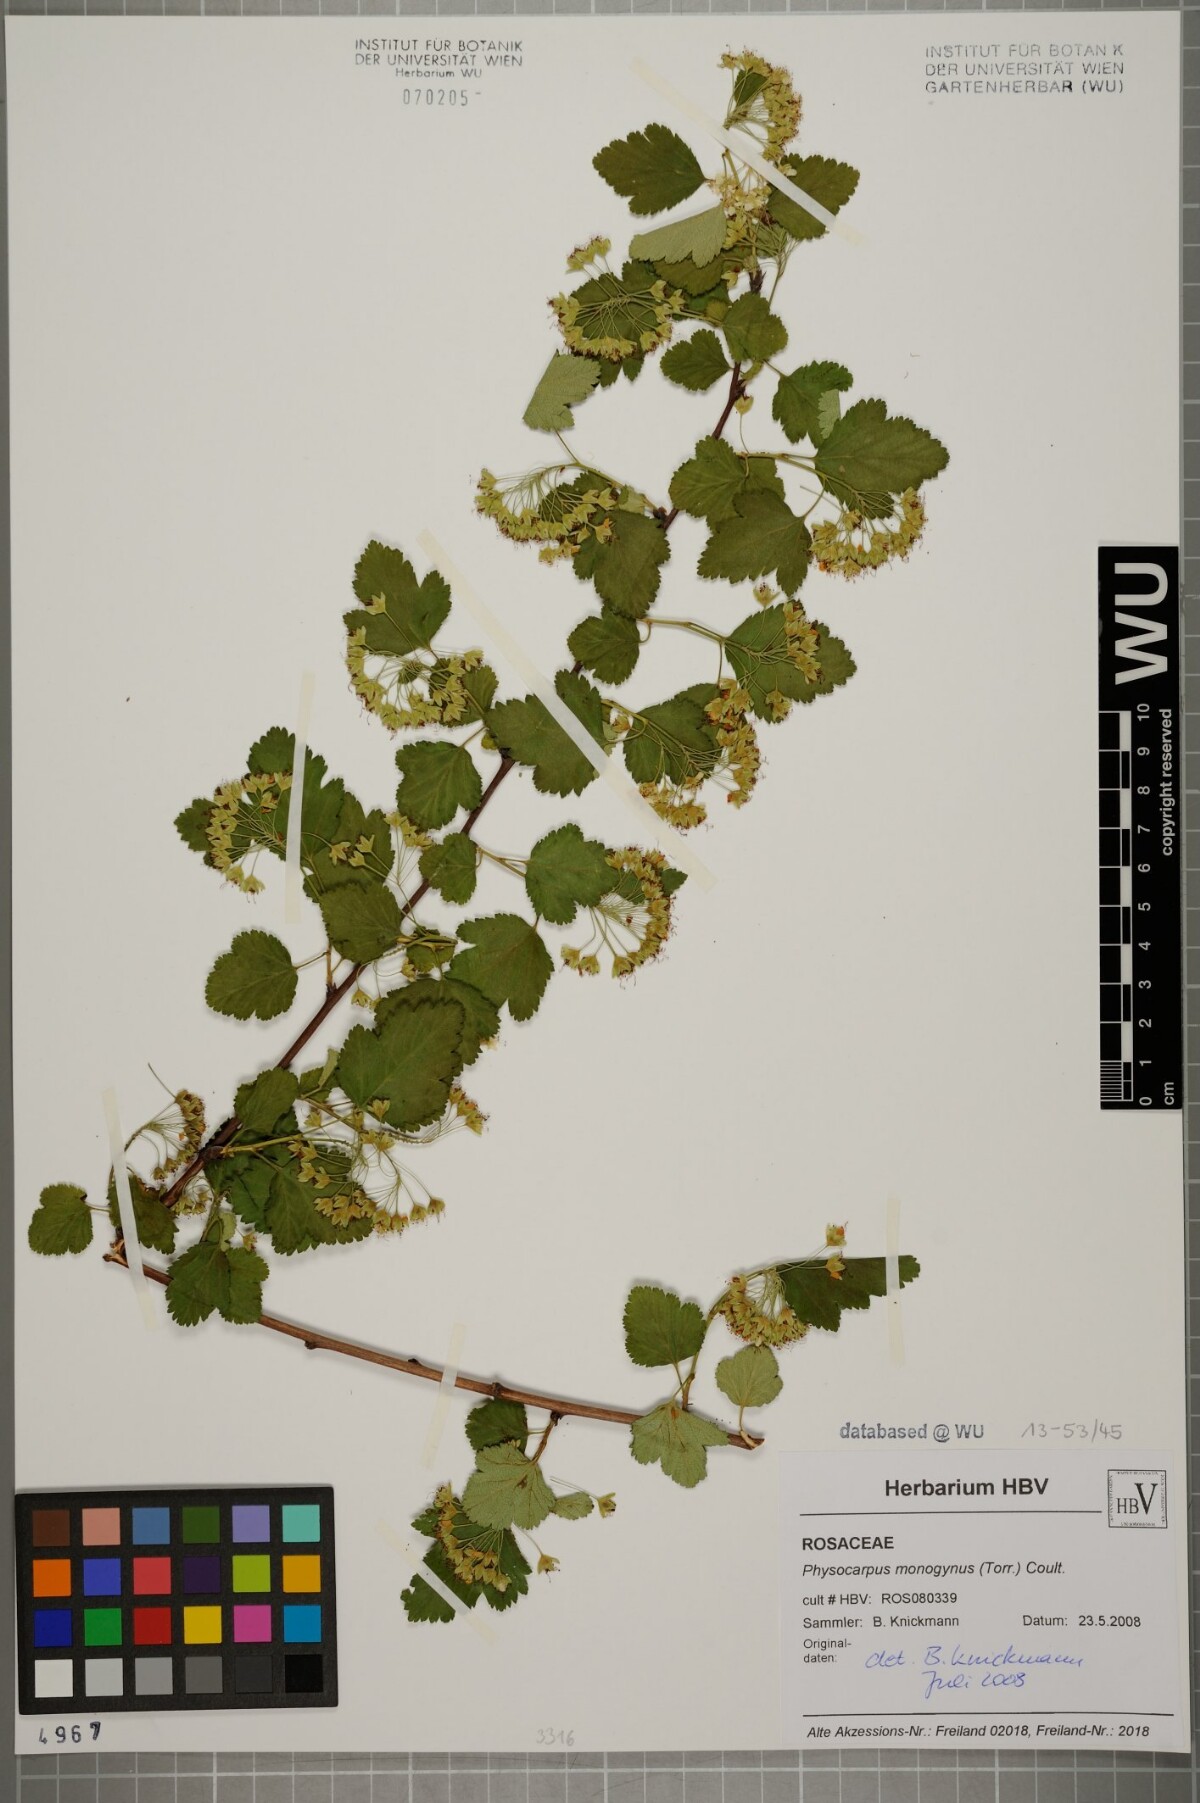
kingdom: Plantae
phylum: Tracheophyta
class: Magnoliopsida
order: Rosales
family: Rosaceae
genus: Physocarpus
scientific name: Physocarpus monogynus
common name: Mountain ninebark
